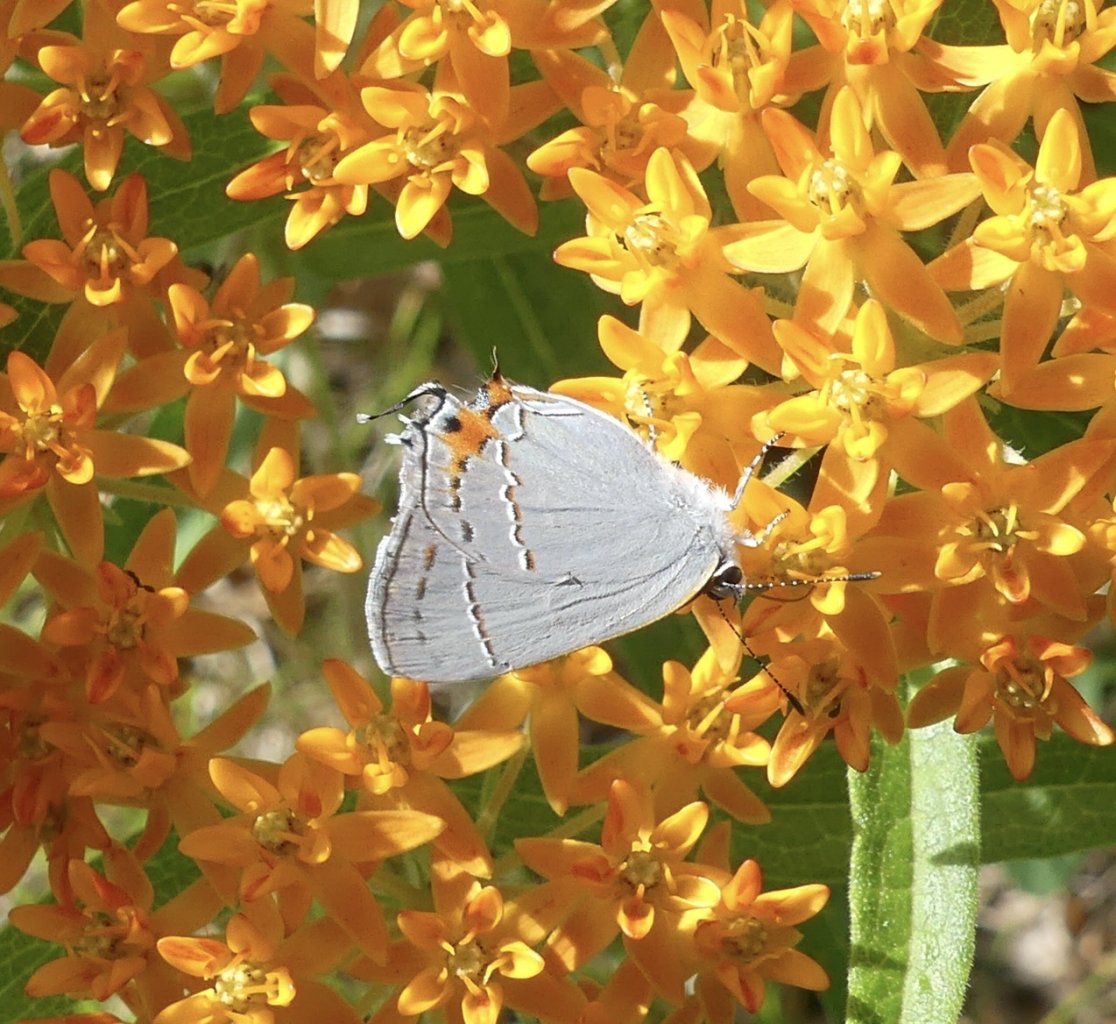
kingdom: Animalia
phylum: Arthropoda
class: Insecta
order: Lepidoptera
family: Lycaenidae
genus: Strymon
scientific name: Strymon melinus
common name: Gray Hairstreak
